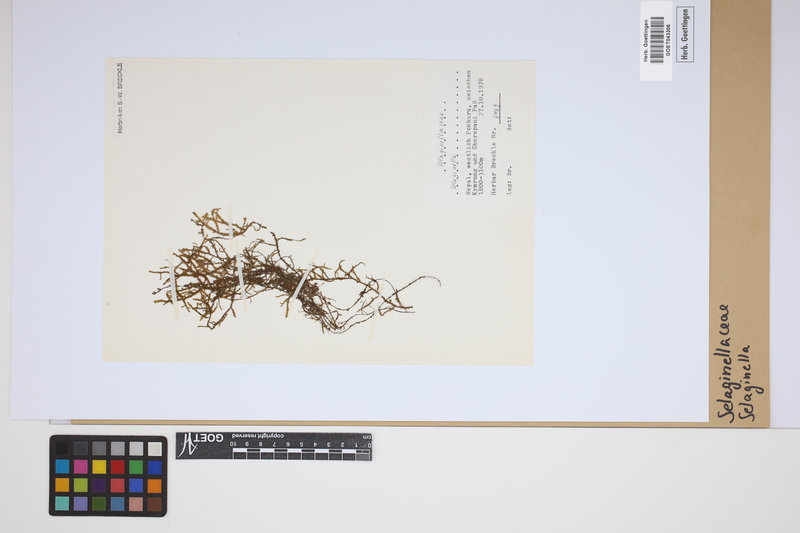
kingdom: Plantae
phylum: Tracheophyta
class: Lycopodiopsida
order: Selaginellales
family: Selaginellaceae
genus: Selaginella
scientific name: Selaginella
